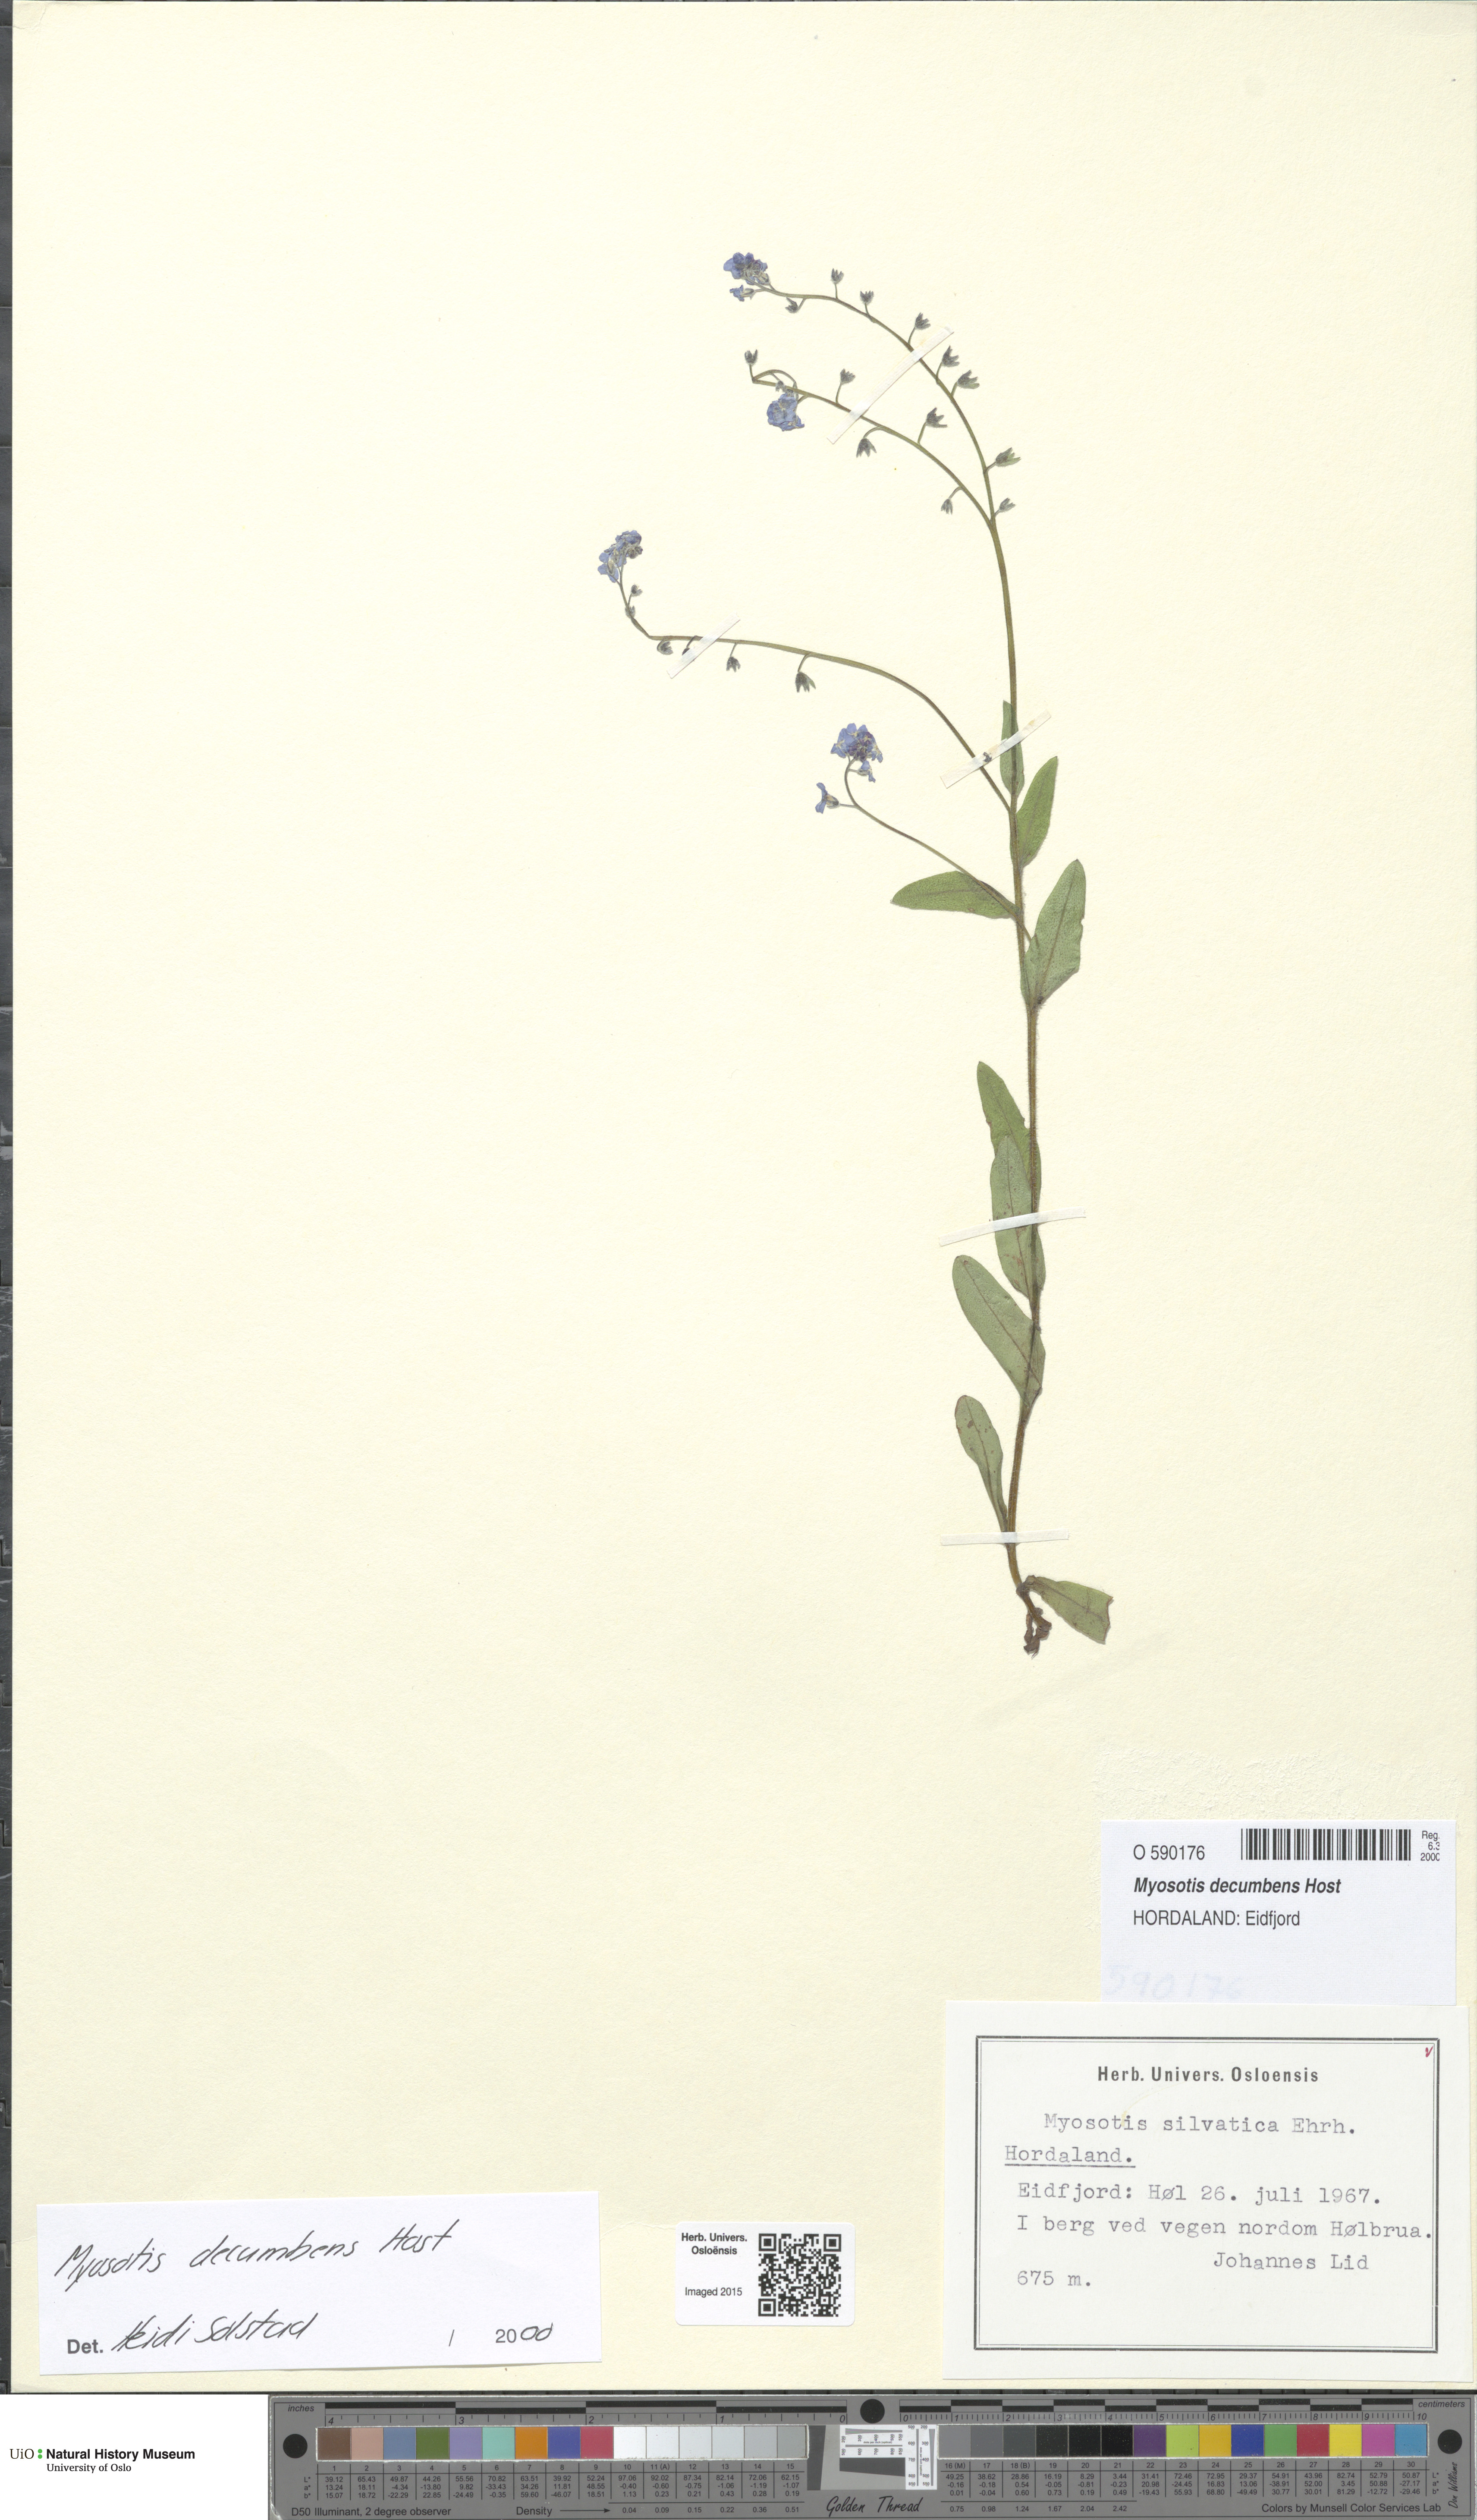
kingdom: Plantae
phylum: Tracheophyta
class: Magnoliopsida
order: Boraginales
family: Boraginaceae
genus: Myosotis
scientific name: Myosotis decumbens
